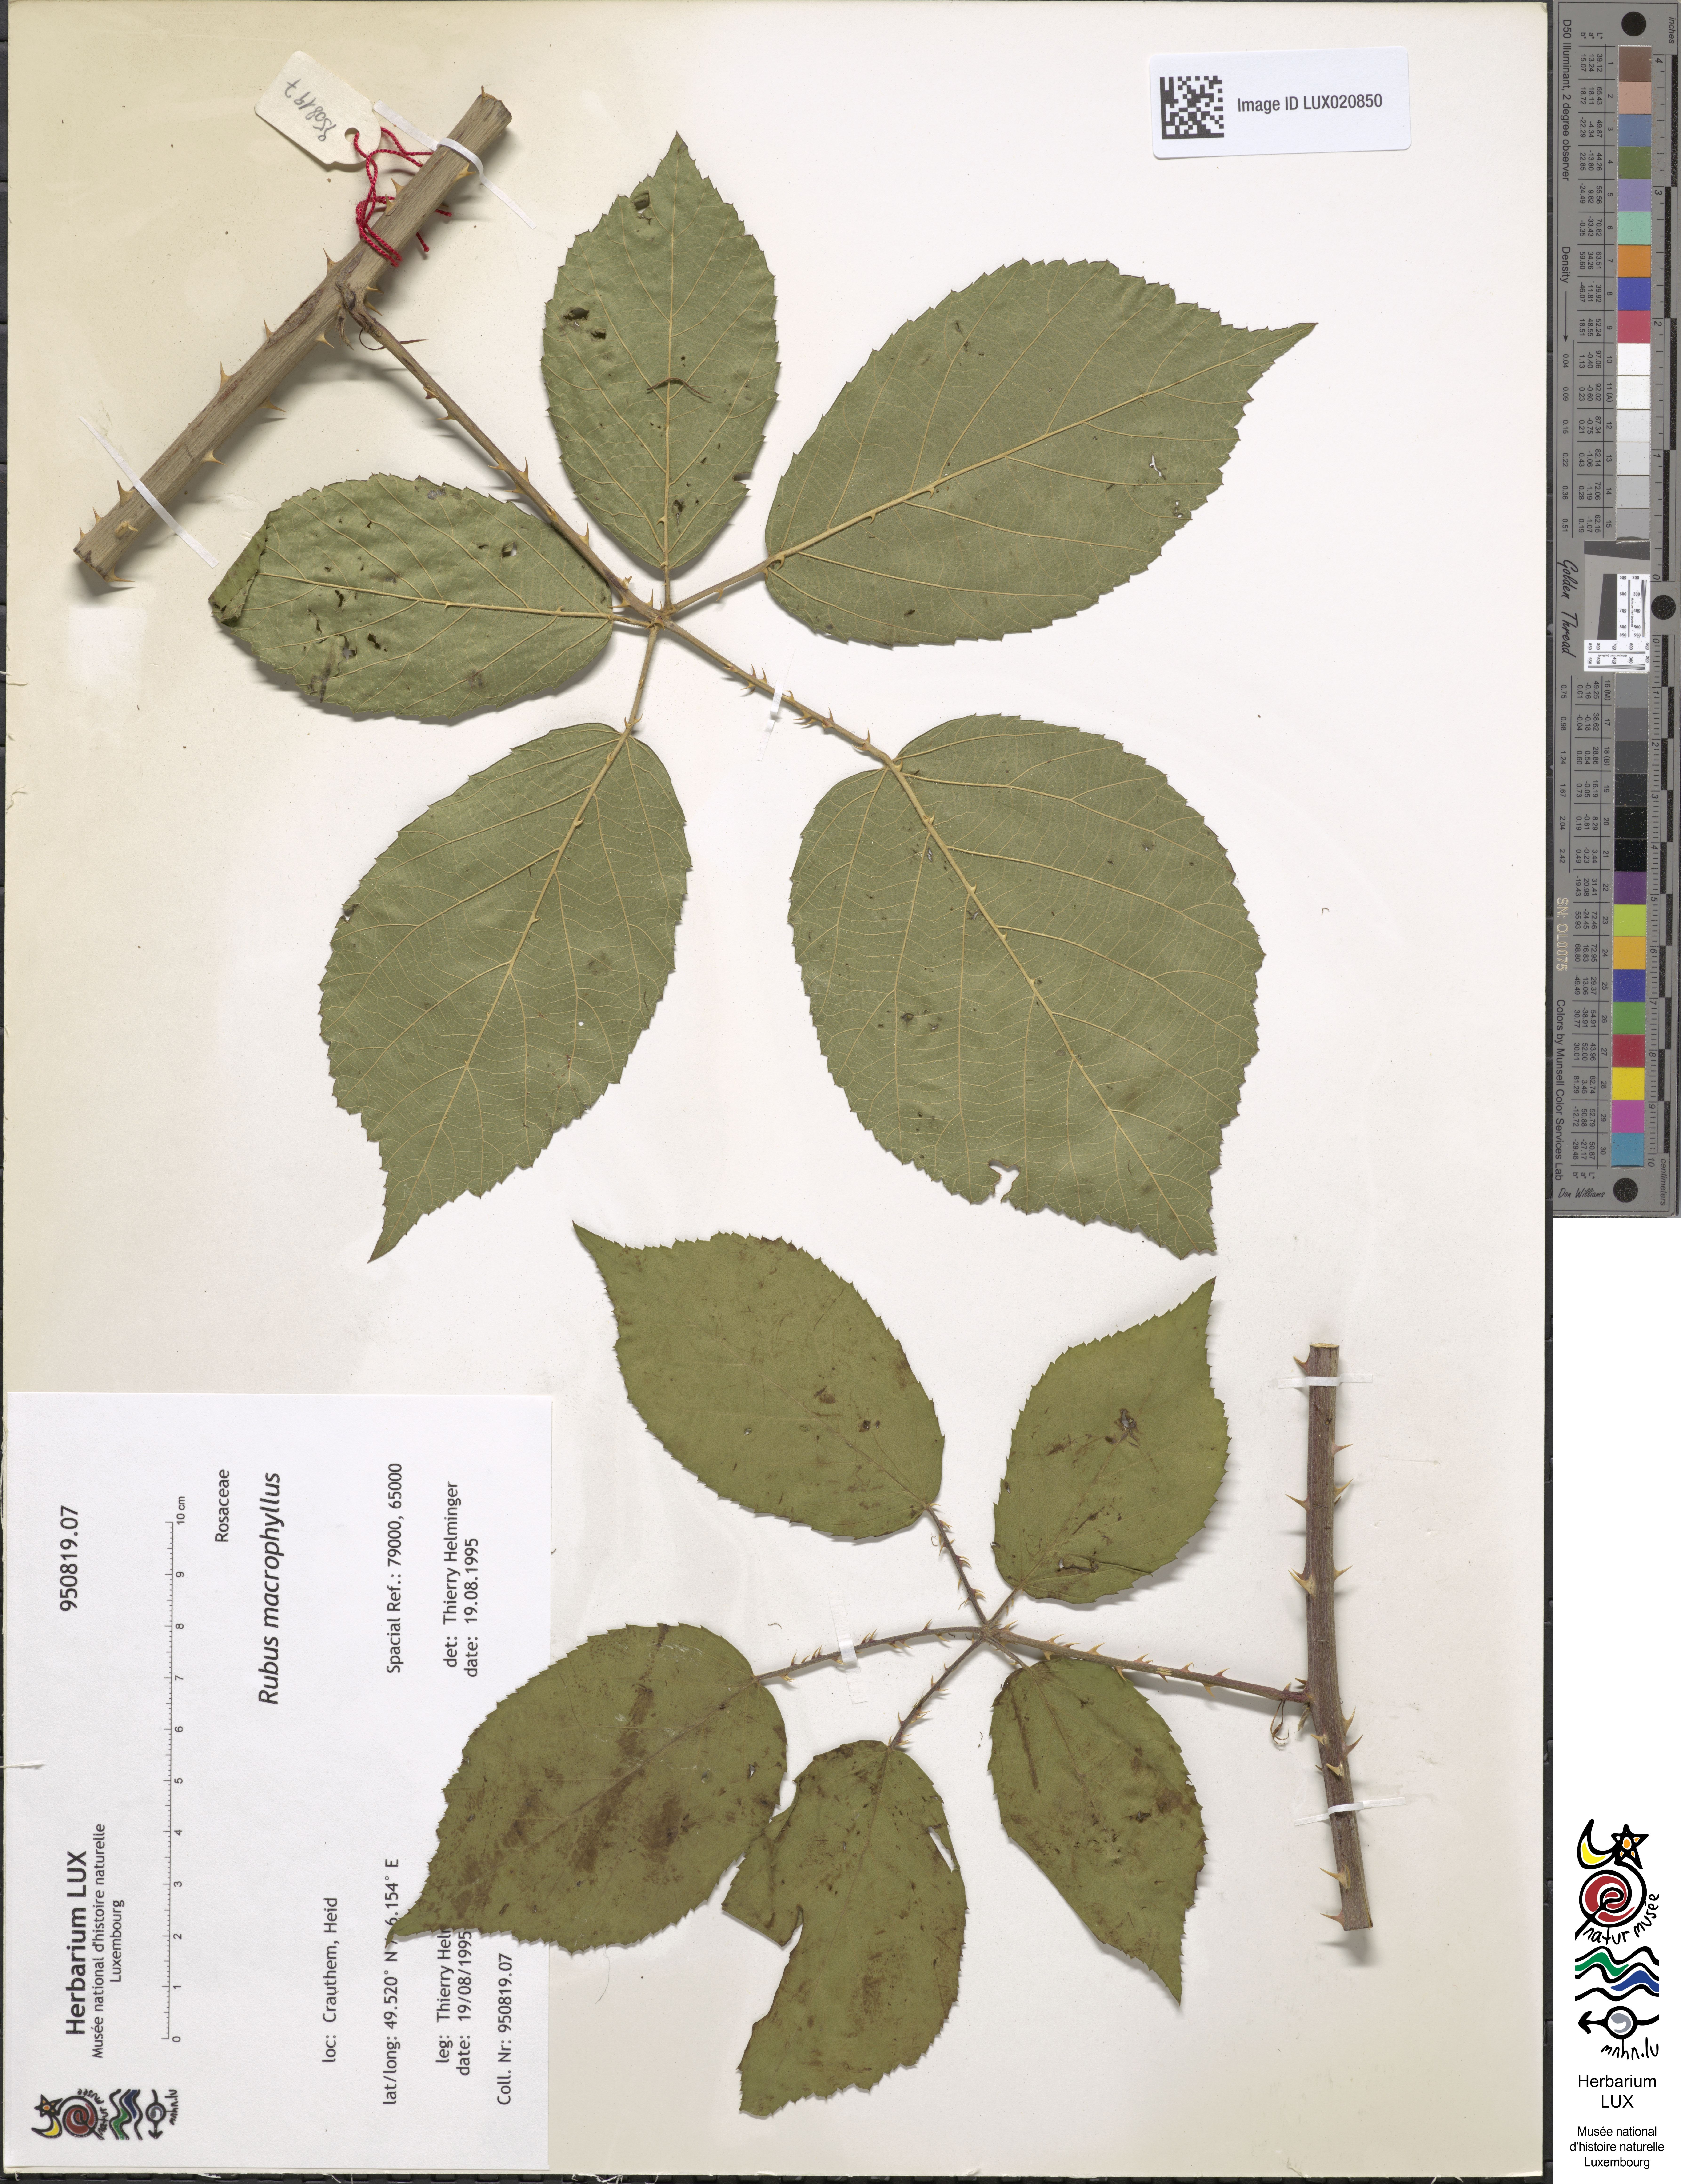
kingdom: Plantae
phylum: Tracheophyta
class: Magnoliopsida
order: Rosales
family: Rosaceae
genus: Rubus
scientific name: Rubus macrophyllus
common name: Largeleaf blackberry
